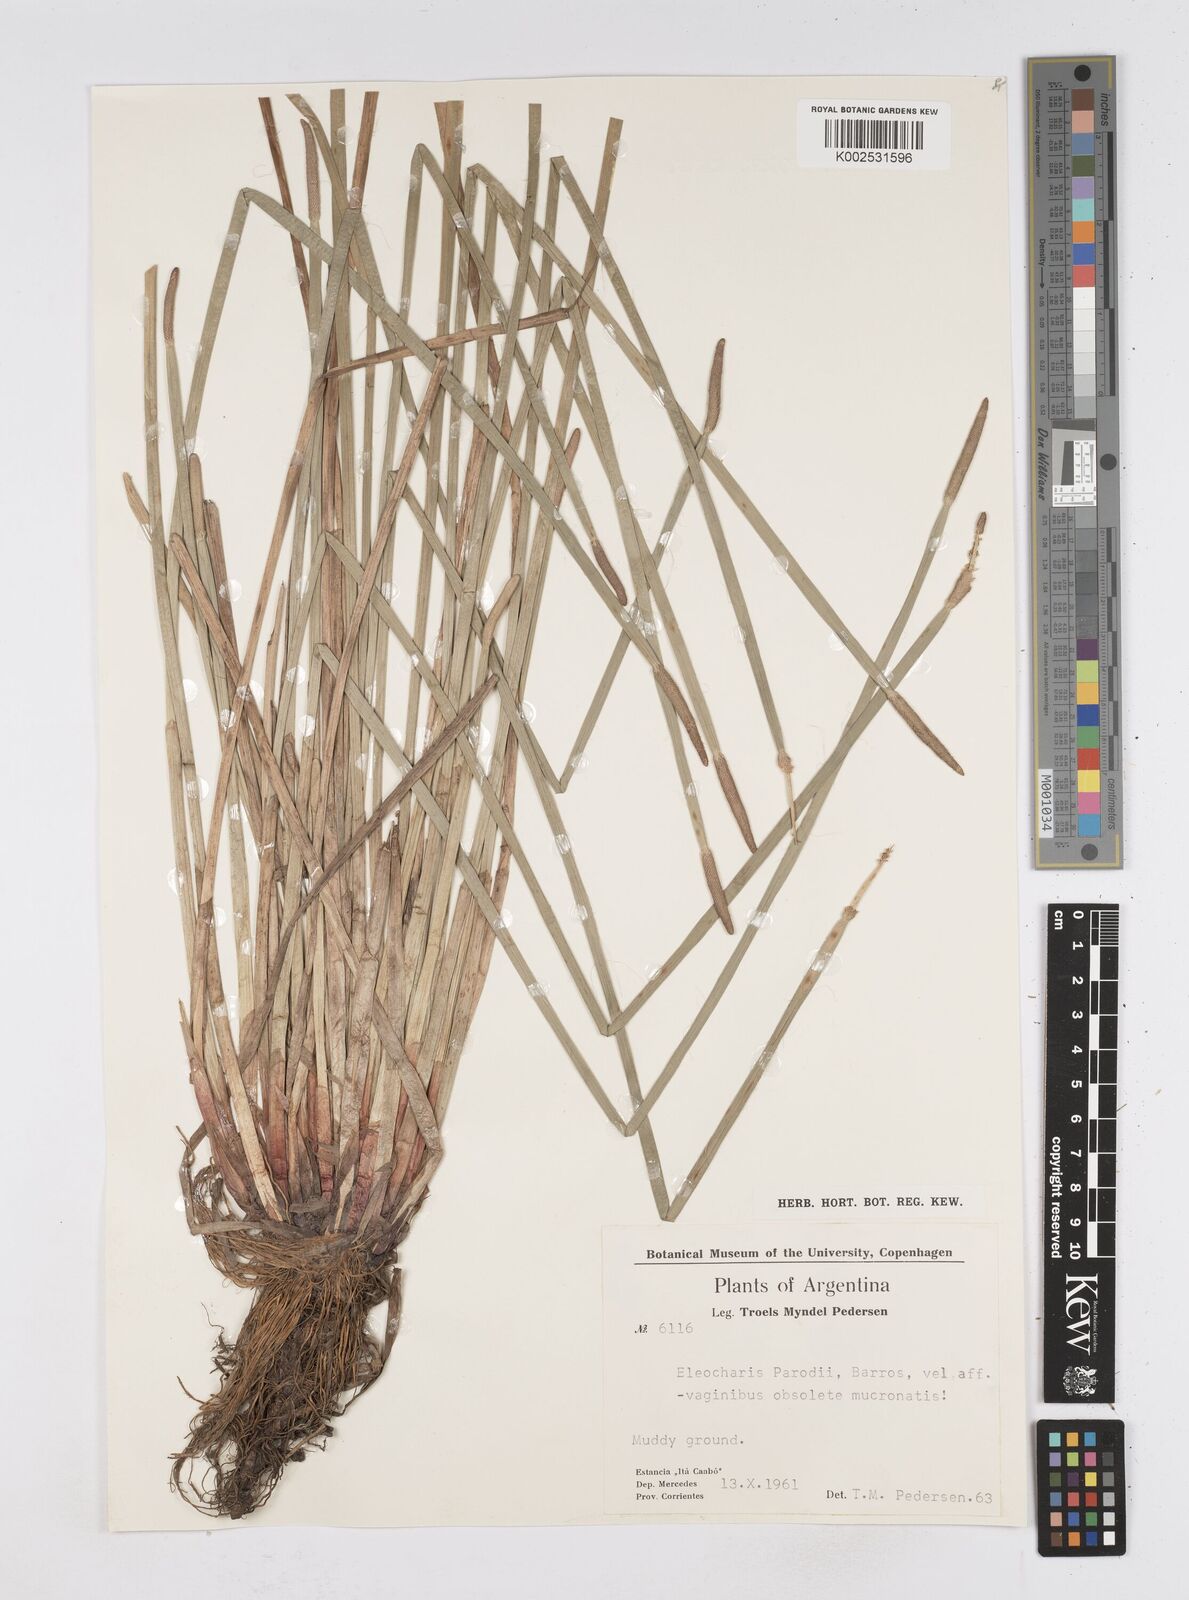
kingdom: Plantae
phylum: Tracheophyta
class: Liliopsida
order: Poales
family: Cyperaceae
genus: Eleocharis
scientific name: Eleocharis parodii
